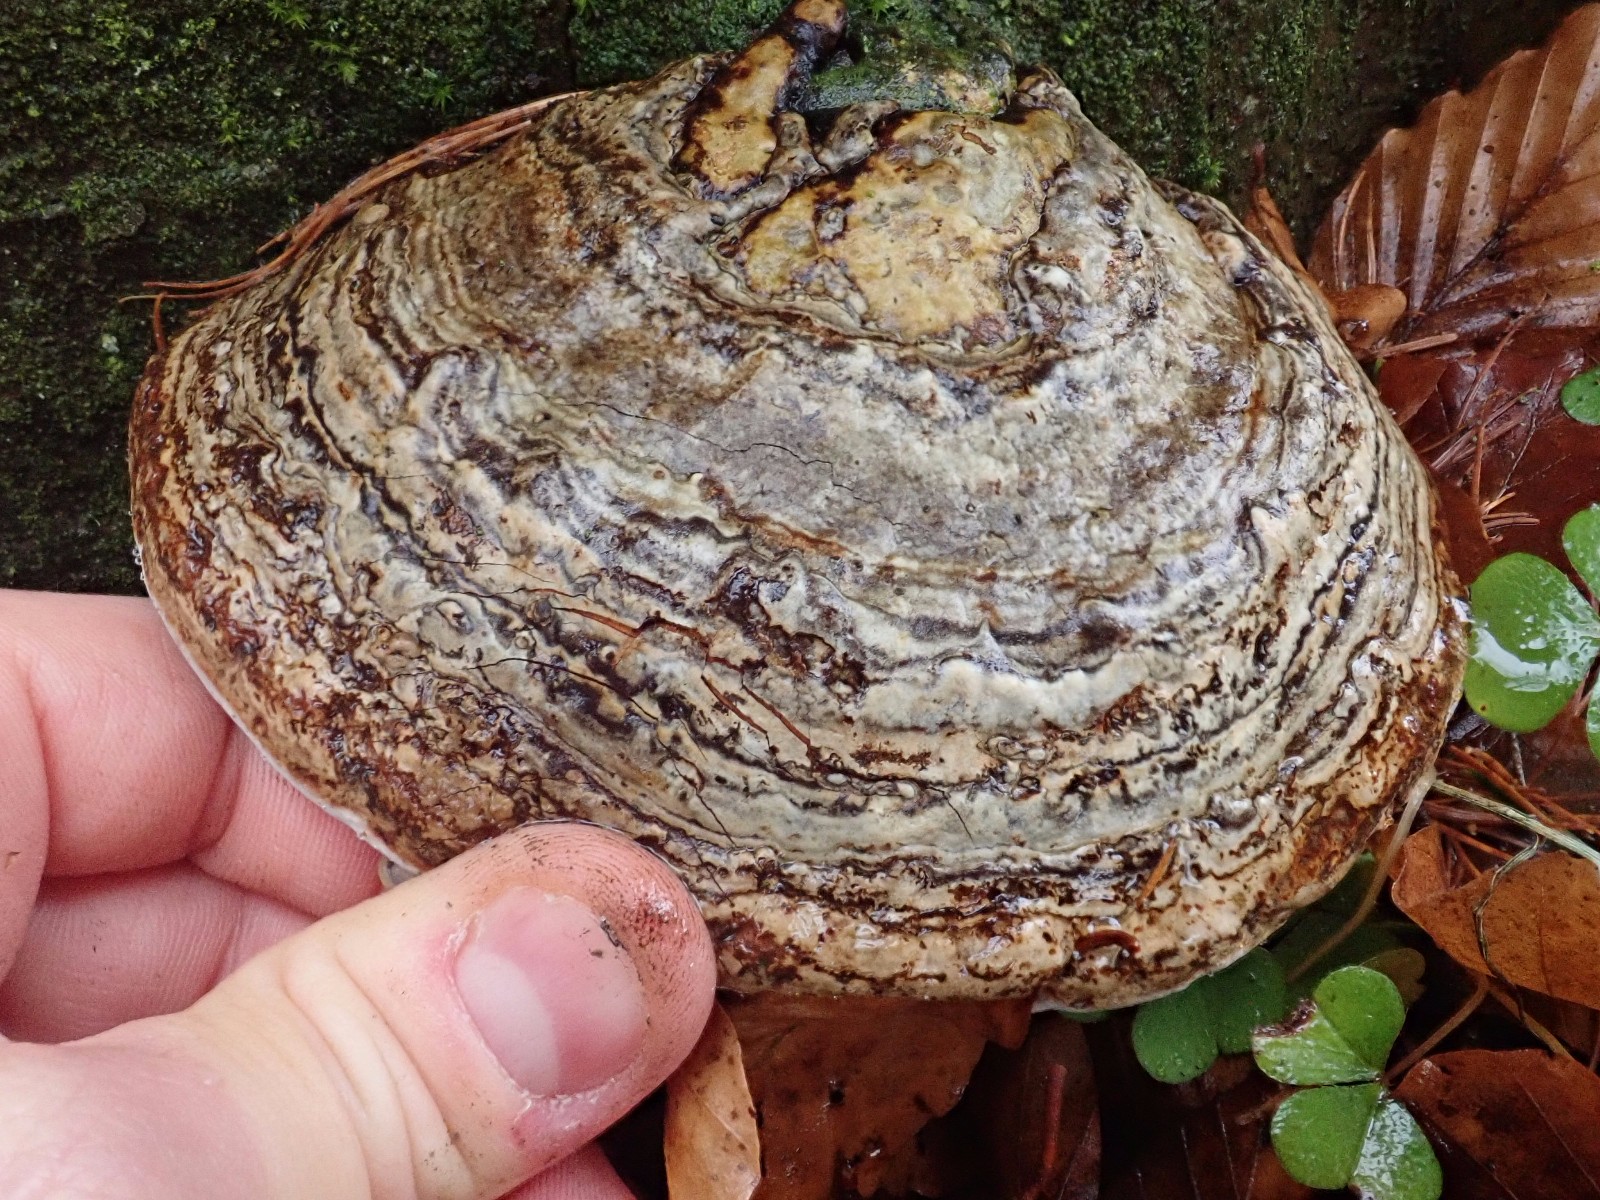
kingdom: Fungi
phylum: Basidiomycota
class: Agaricomycetes
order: Polyporales
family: Polyporaceae
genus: Ganoderma
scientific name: Ganoderma applanatum
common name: flad lakporesvamp
